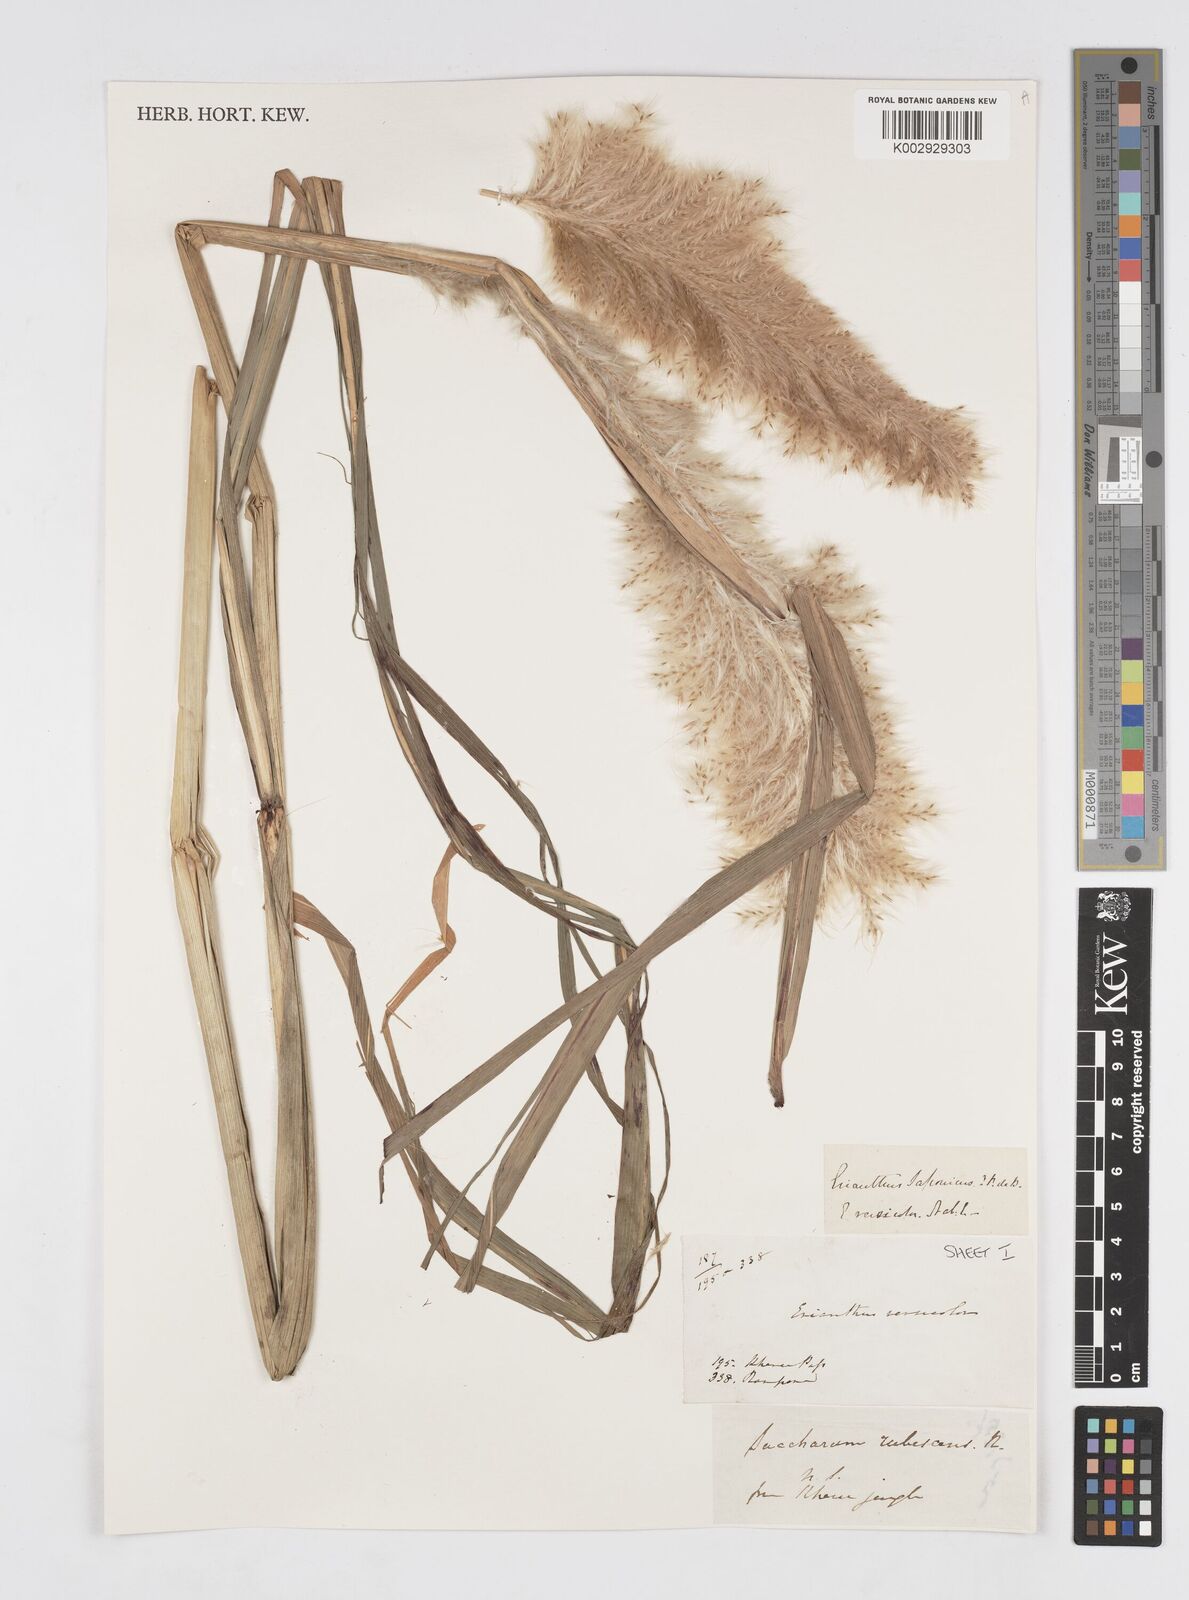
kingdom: Plantae
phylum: Tracheophyta
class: Liliopsida
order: Poales
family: Poaceae
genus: Tripidium
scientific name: Tripidium rufipilum
